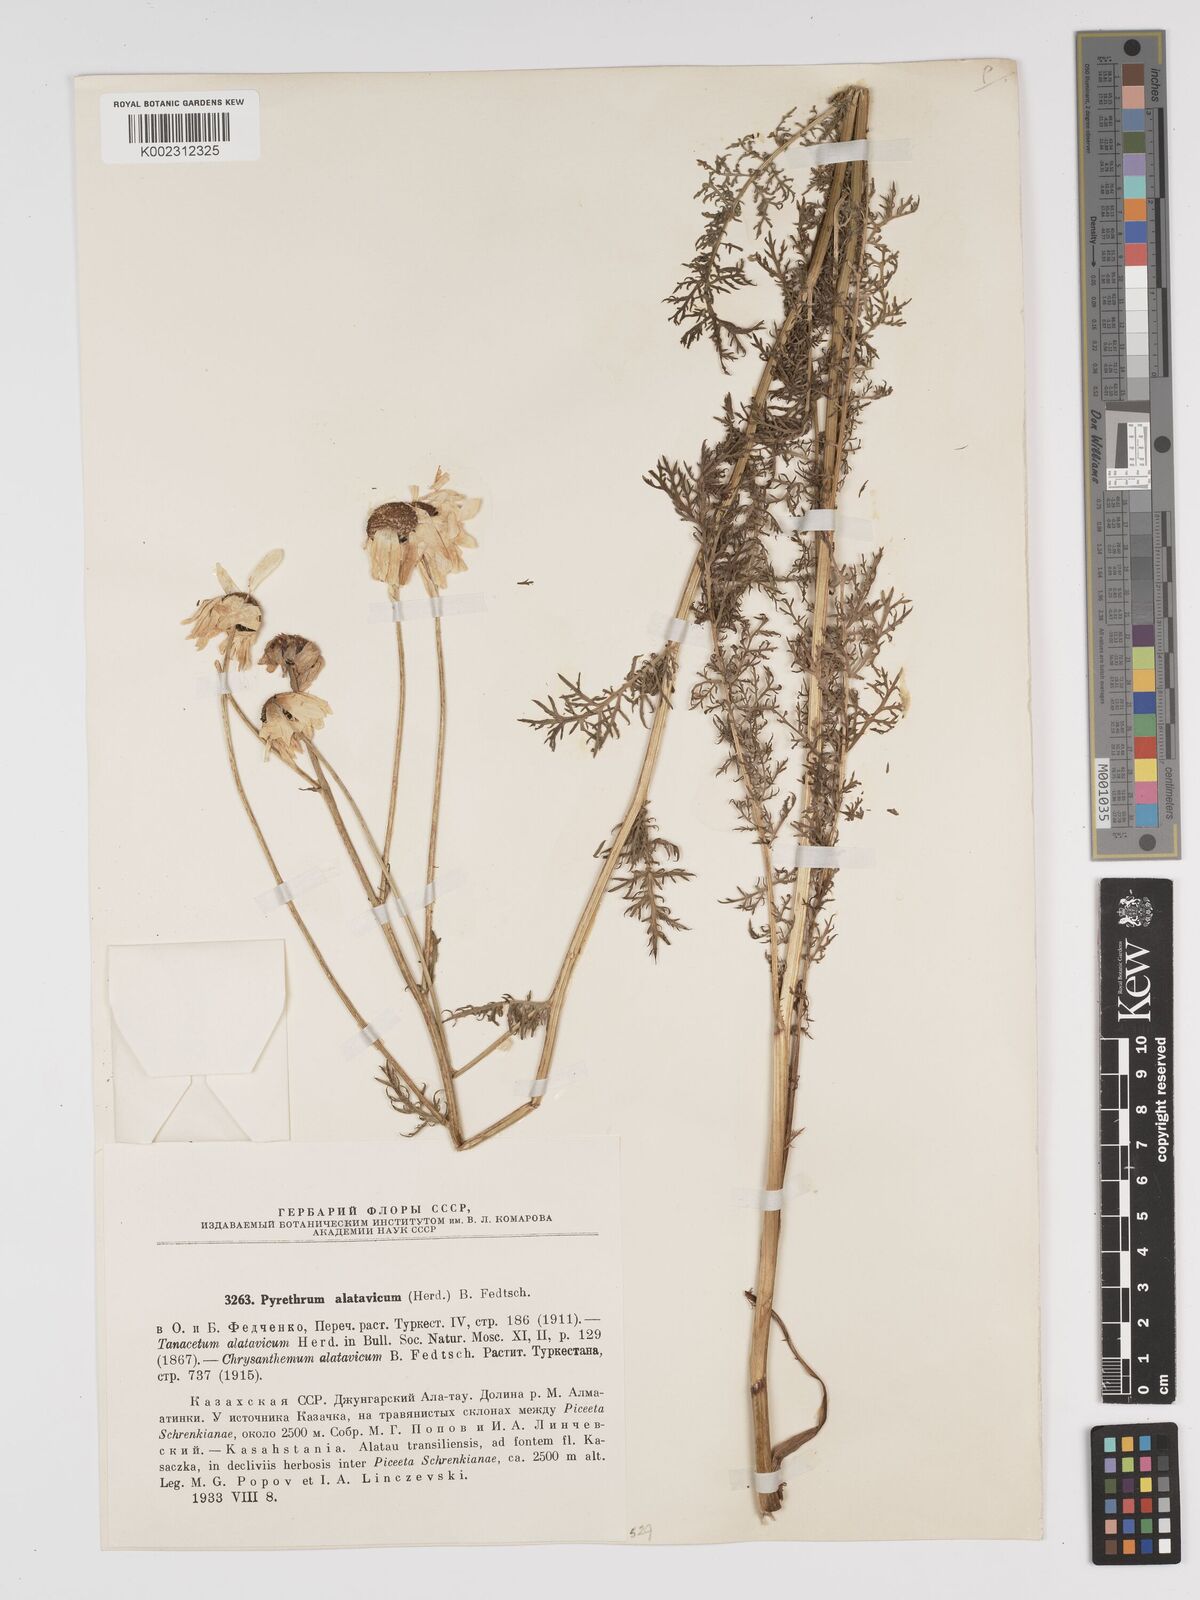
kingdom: Plantae
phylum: Tracheophyta
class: Magnoliopsida
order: Asterales
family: Asteraceae
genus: Tanacetum
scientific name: Tanacetum alatavicum
